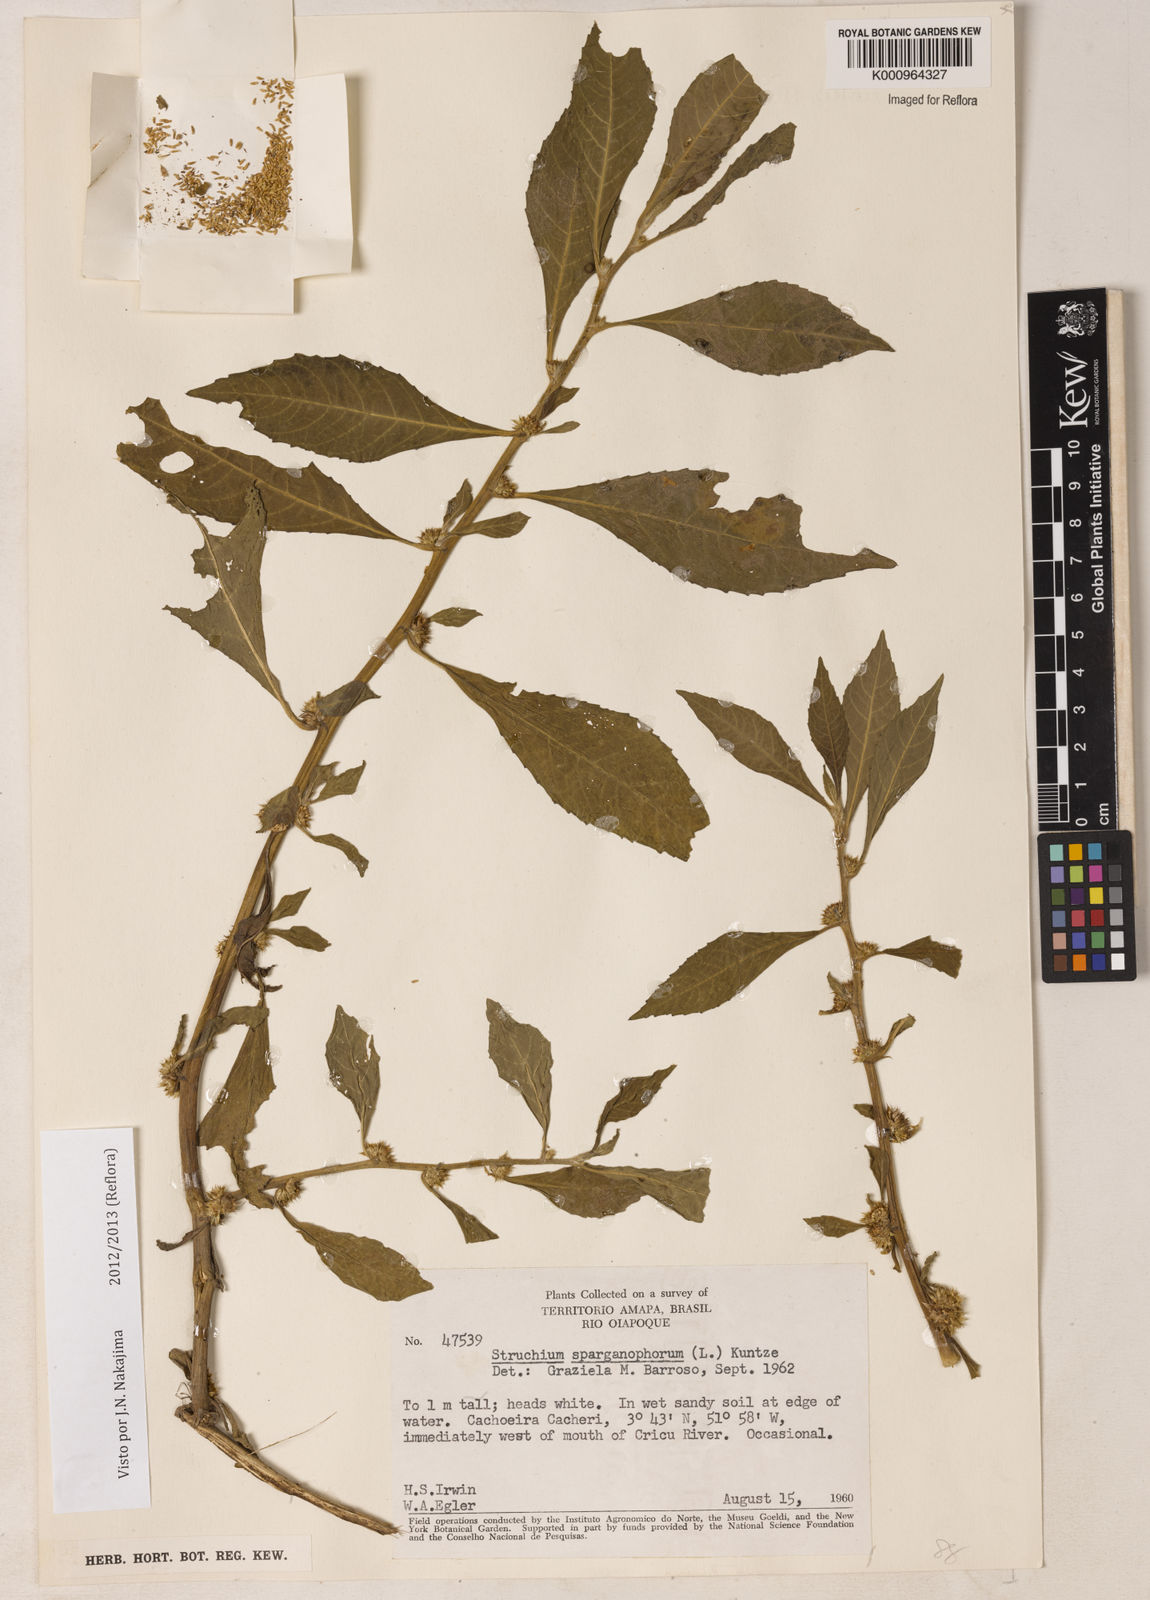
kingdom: Plantae
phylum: Tracheophyta
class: Magnoliopsida
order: Asterales
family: Asteraceae
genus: Struchium
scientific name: Struchium sparganophorum
